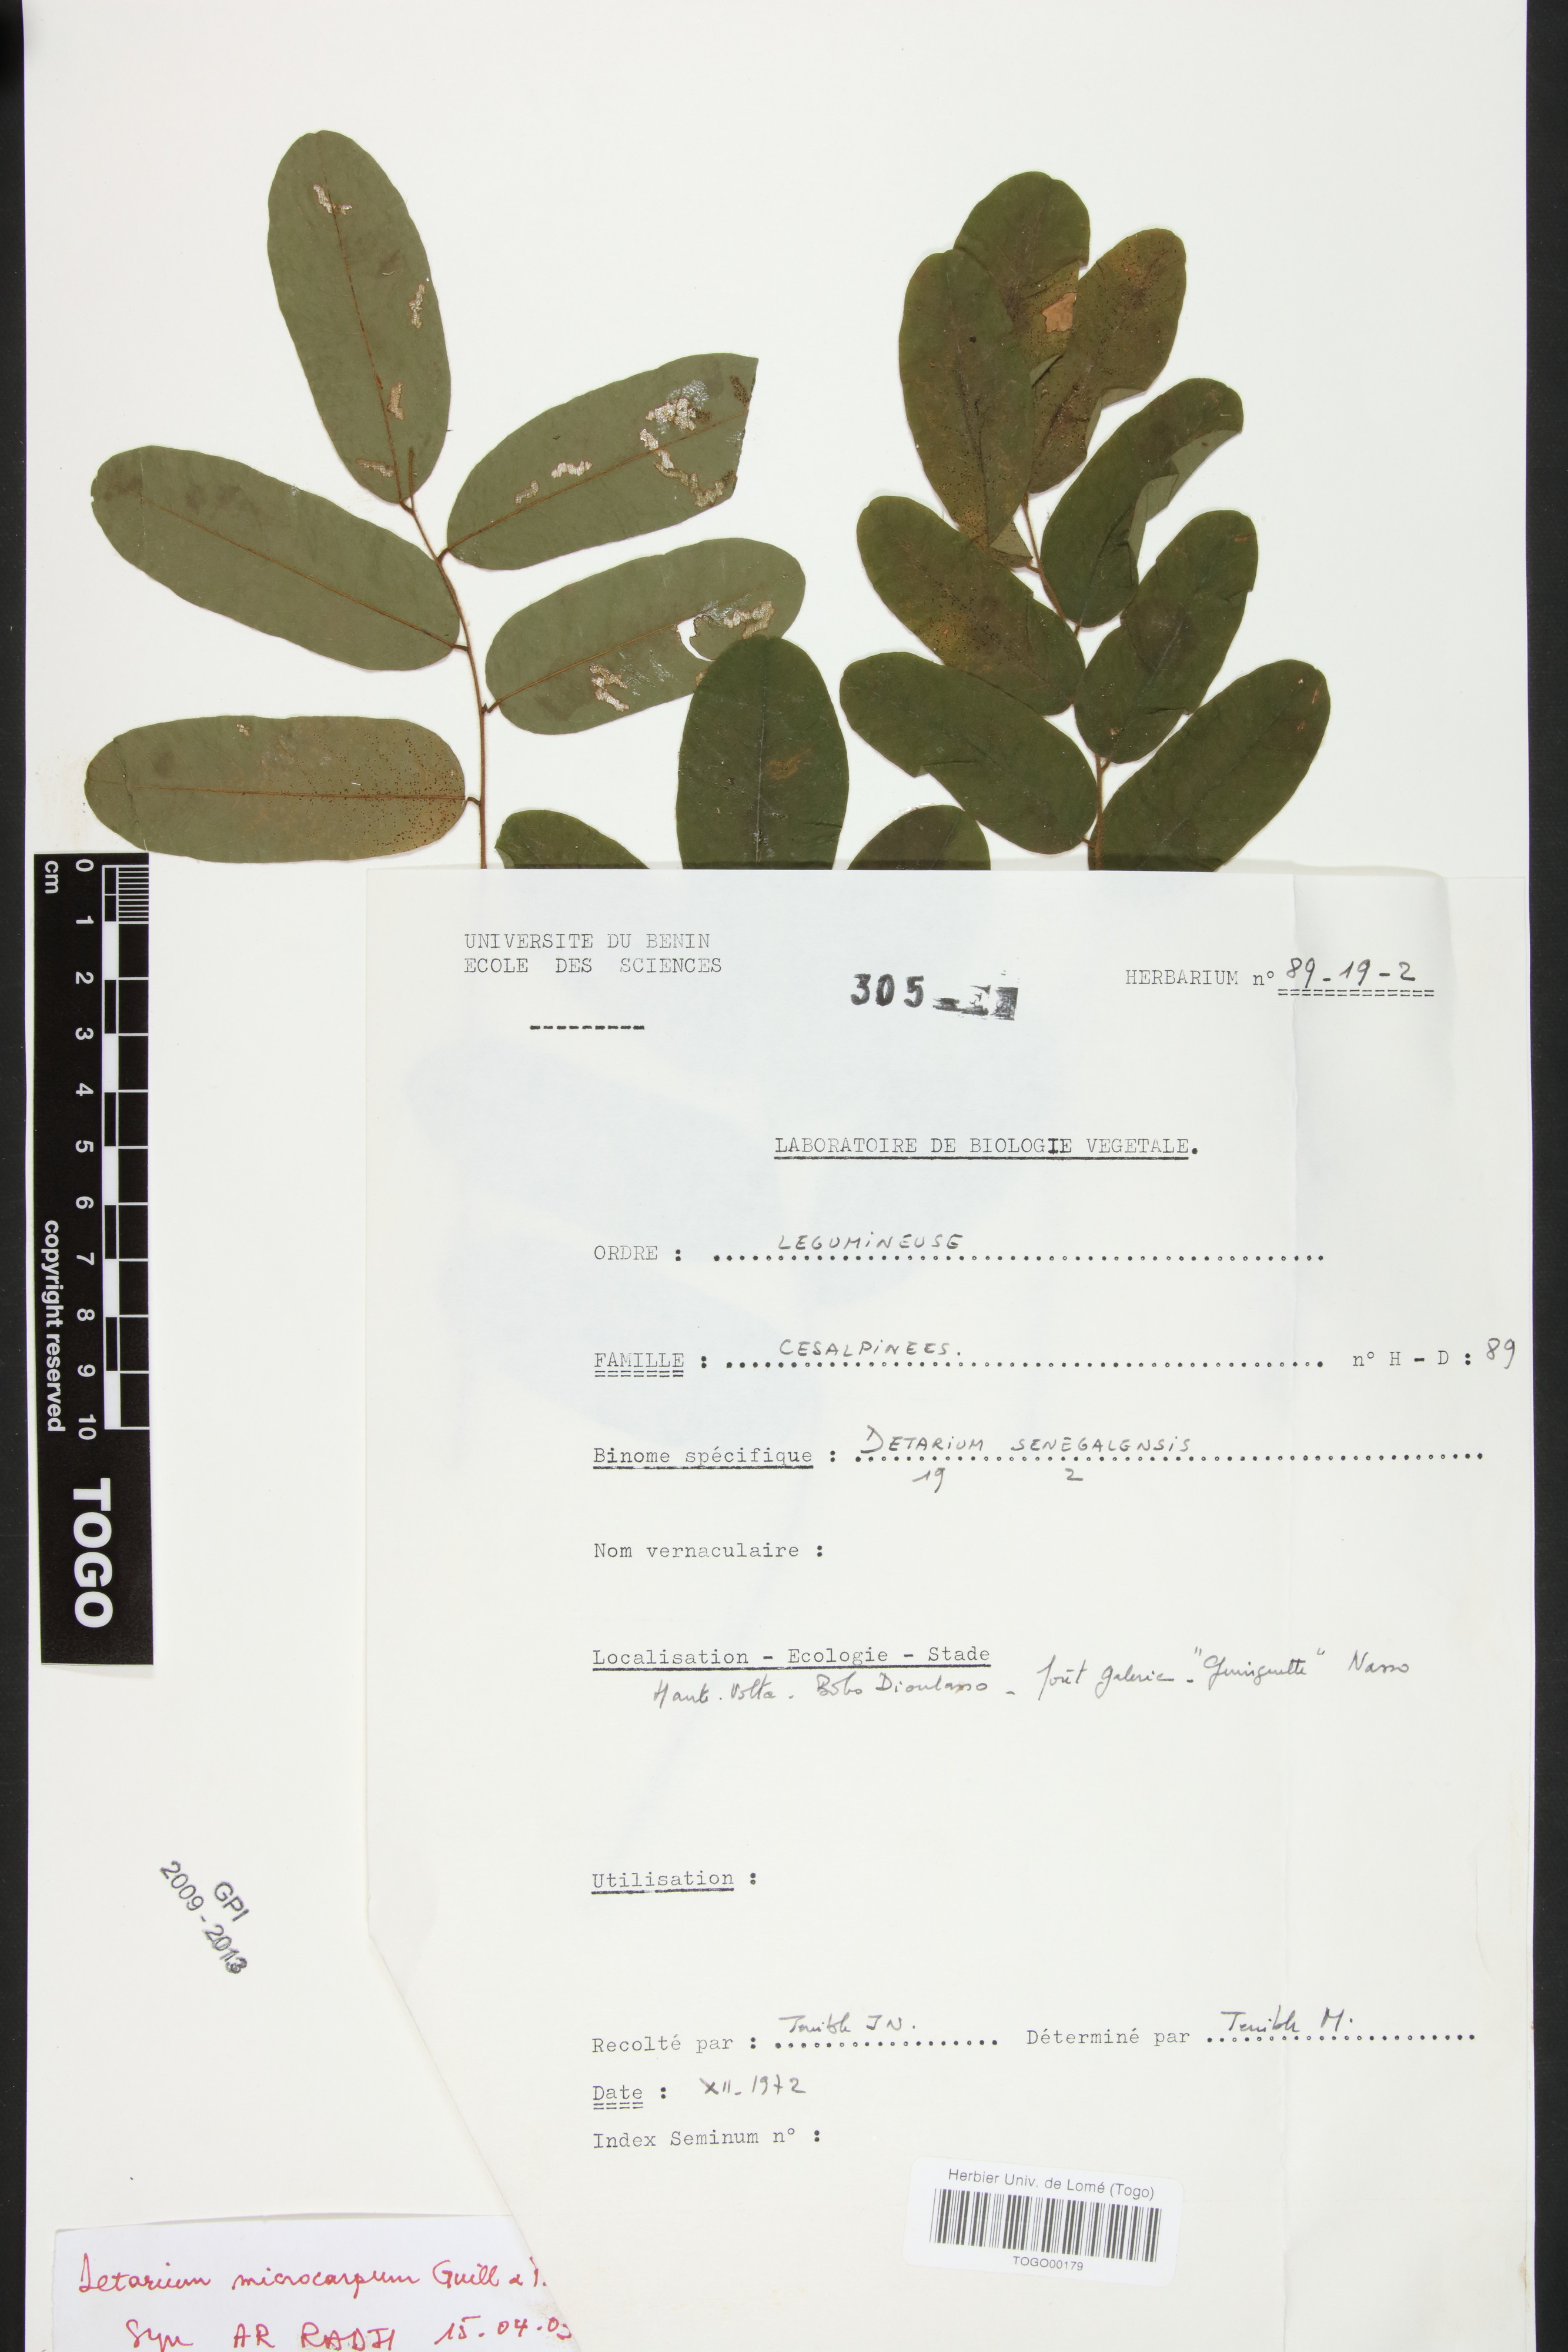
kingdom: Plantae
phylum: Tracheophyta
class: Magnoliopsida
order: Fabales
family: Fabaceae
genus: Detarium
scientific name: Detarium microcarpum
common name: Sweet dattock
